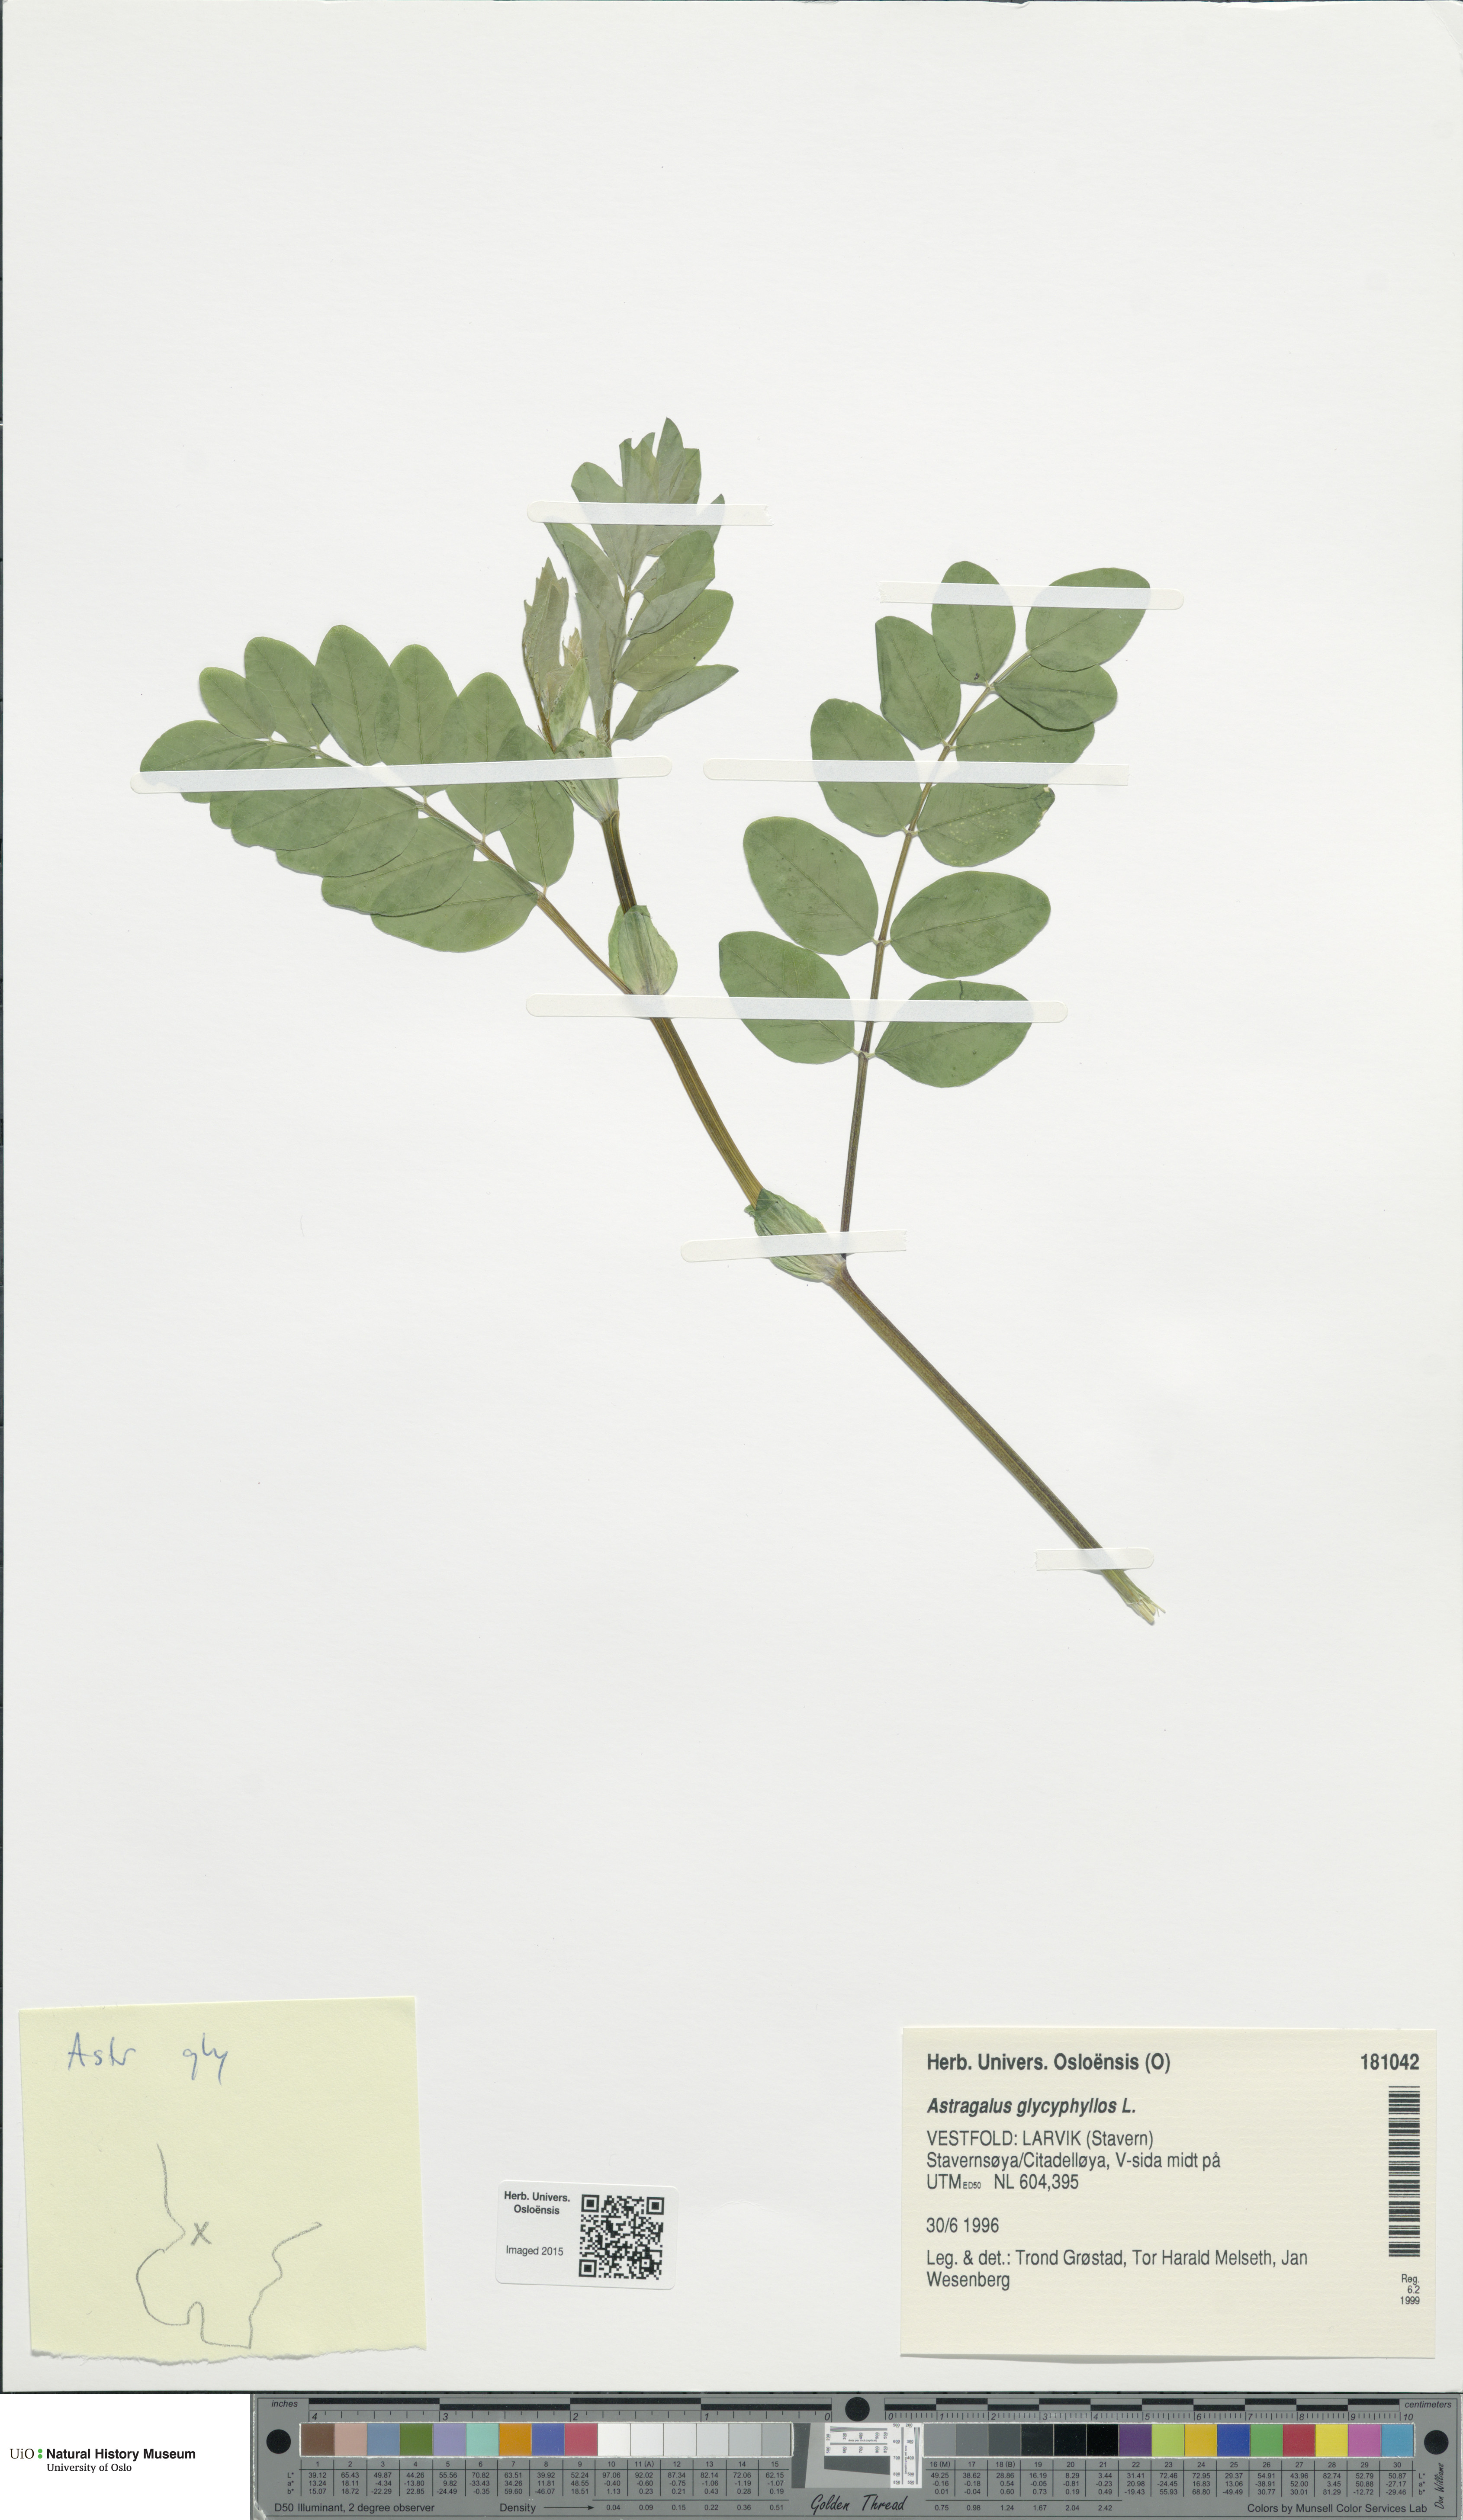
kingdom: Plantae
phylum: Tracheophyta
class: Magnoliopsida
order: Fabales
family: Fabaceae
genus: Astragalus
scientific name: Astragalus glycyphyllos
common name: Wild liquorice
